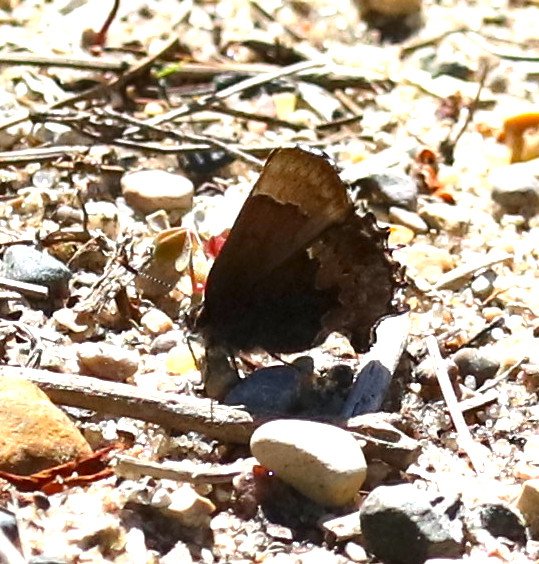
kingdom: Animalia
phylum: Arthropoda
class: Insecta
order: Lepidoptera
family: Lycaenidae
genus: Incisalia
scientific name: Incisalia henrici
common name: Henry's Elfin
